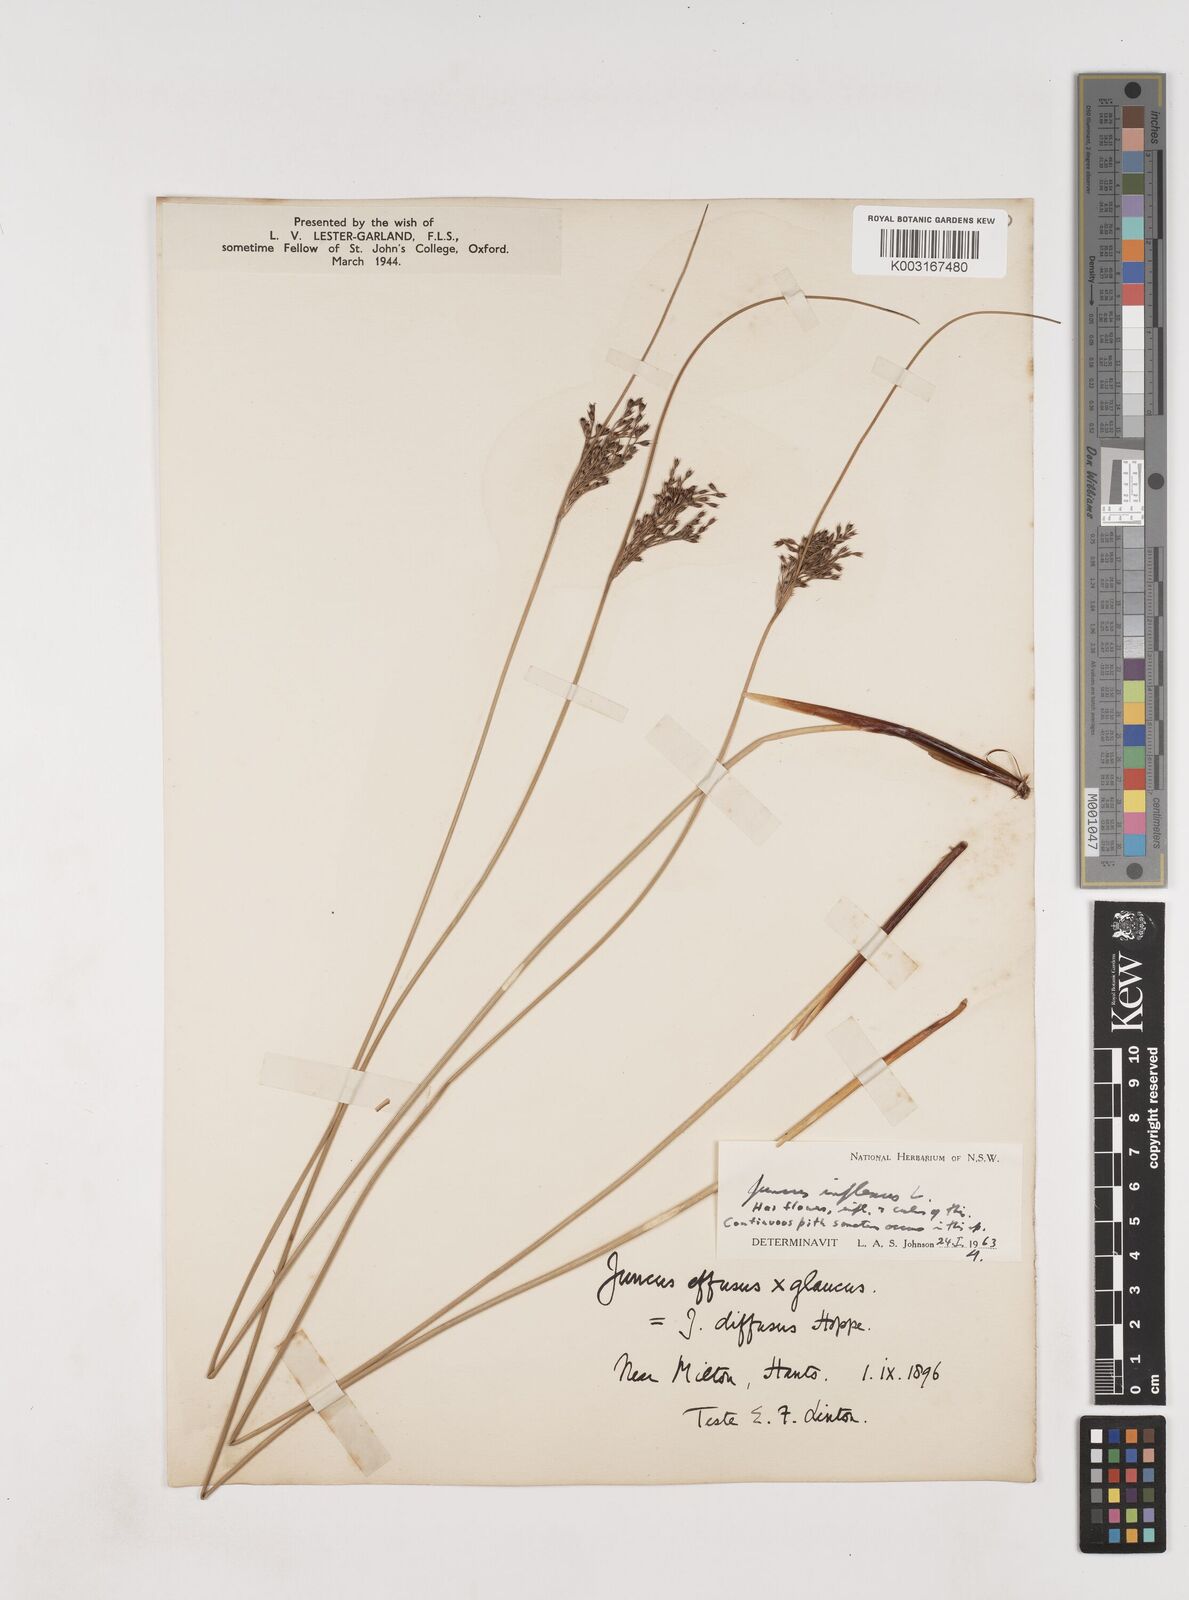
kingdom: Plantae
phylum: Tracheophyta
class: Liliopsida
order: Poales
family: Juncaceae
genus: Juncus
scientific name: Juncus inflexus
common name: Hard rush
